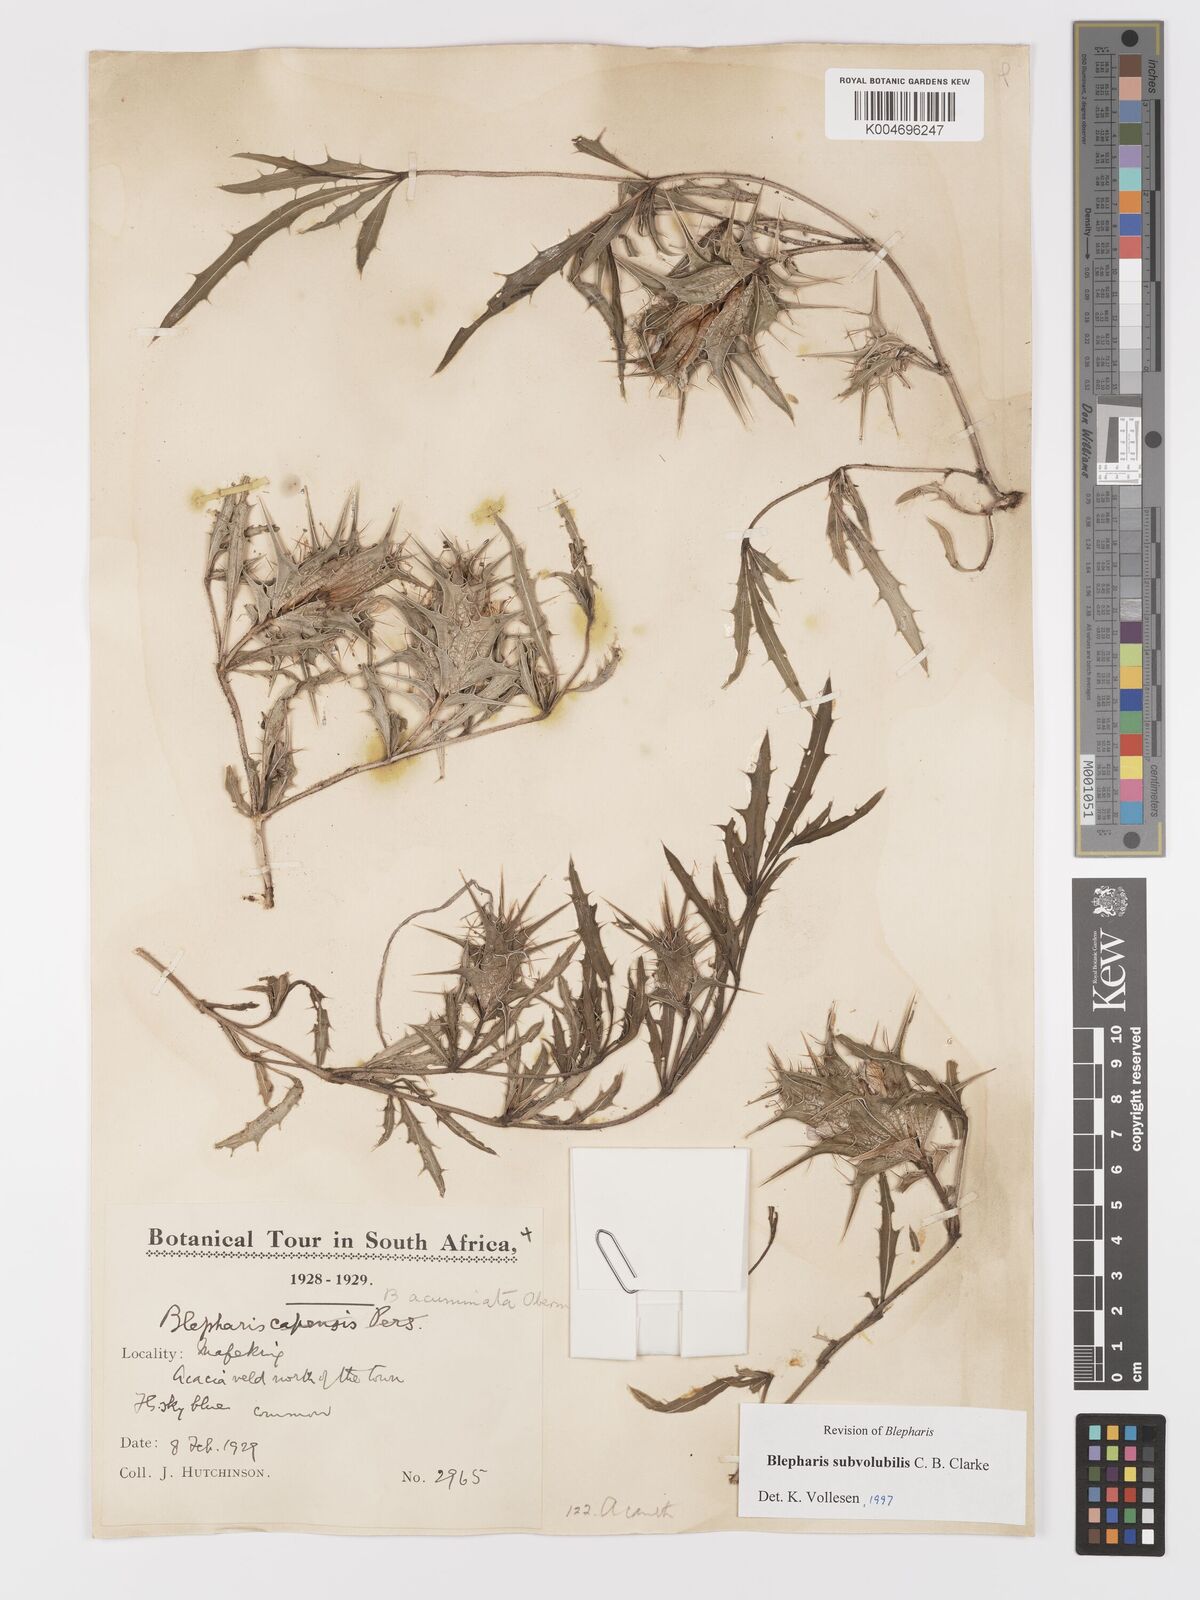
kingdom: Plantae
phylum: Tracheophyta
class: Magnoliopsida
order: Lamiales
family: Acanthaceae
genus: Blepharis
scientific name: Blepharis subvolubilis
